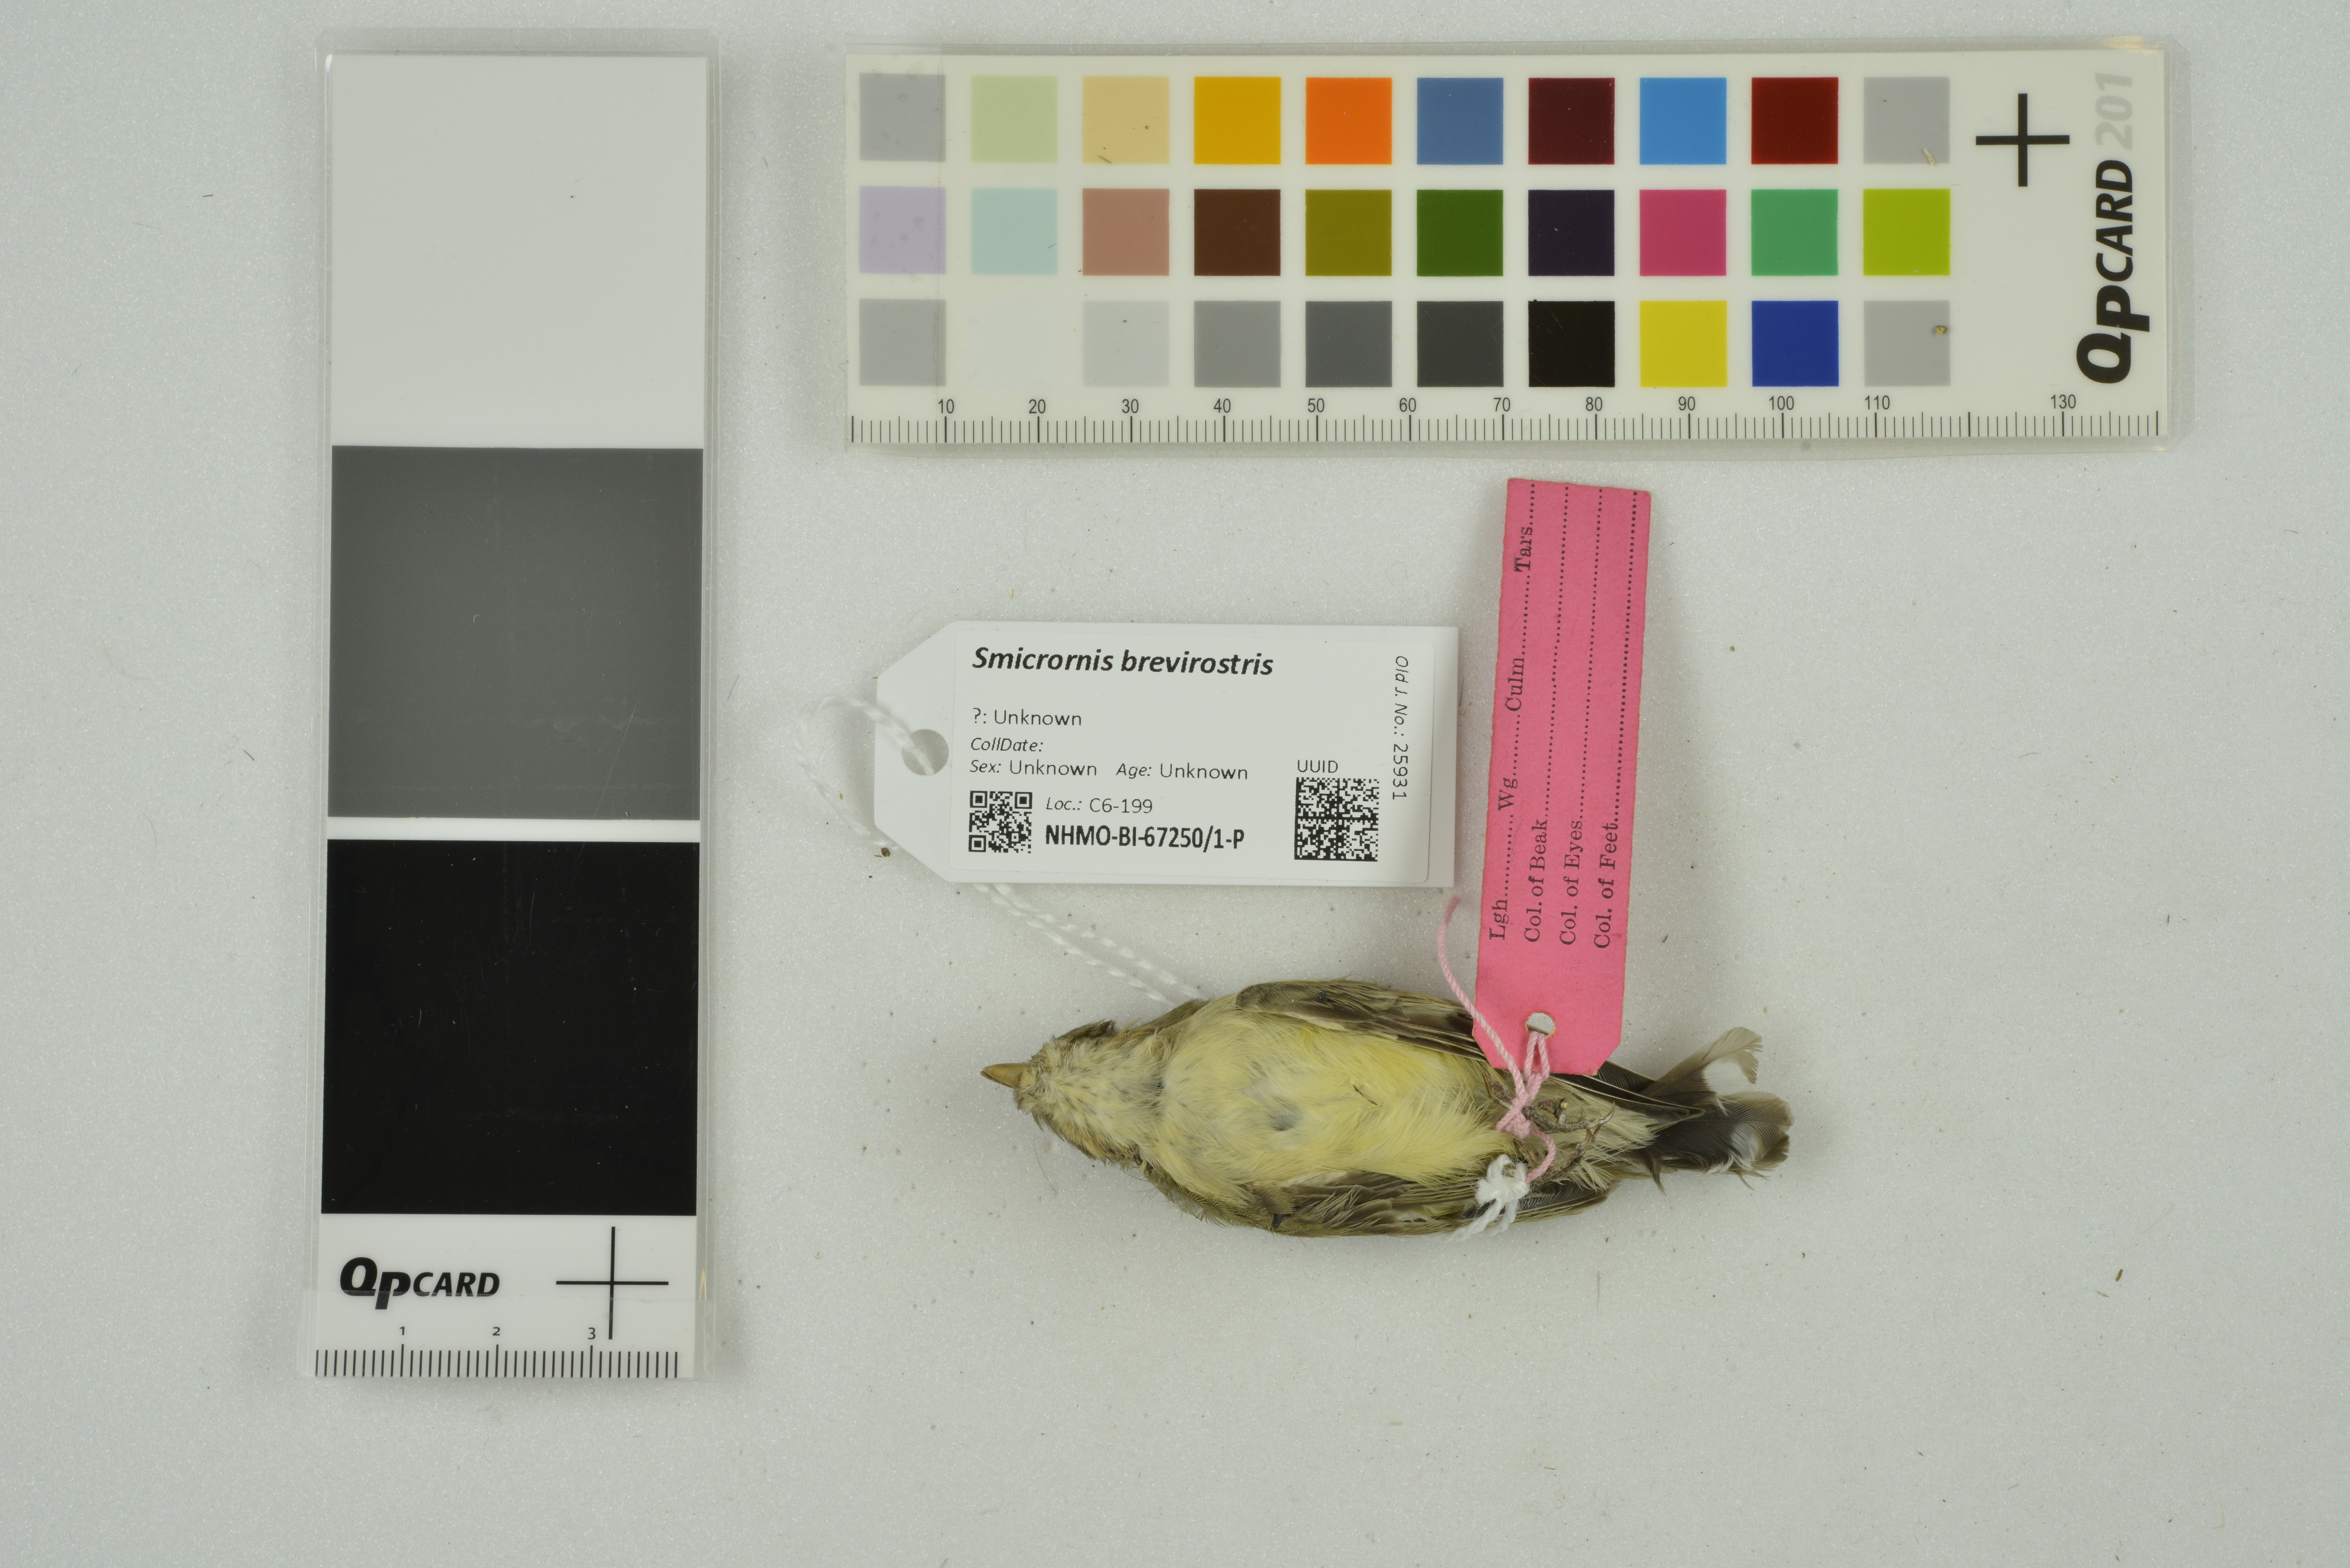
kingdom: Animalia
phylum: Chordata
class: Aves
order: Passeriformes
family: Acanthizidae
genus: Smicrornis
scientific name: Smicrornis brevirostris
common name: Weebill
